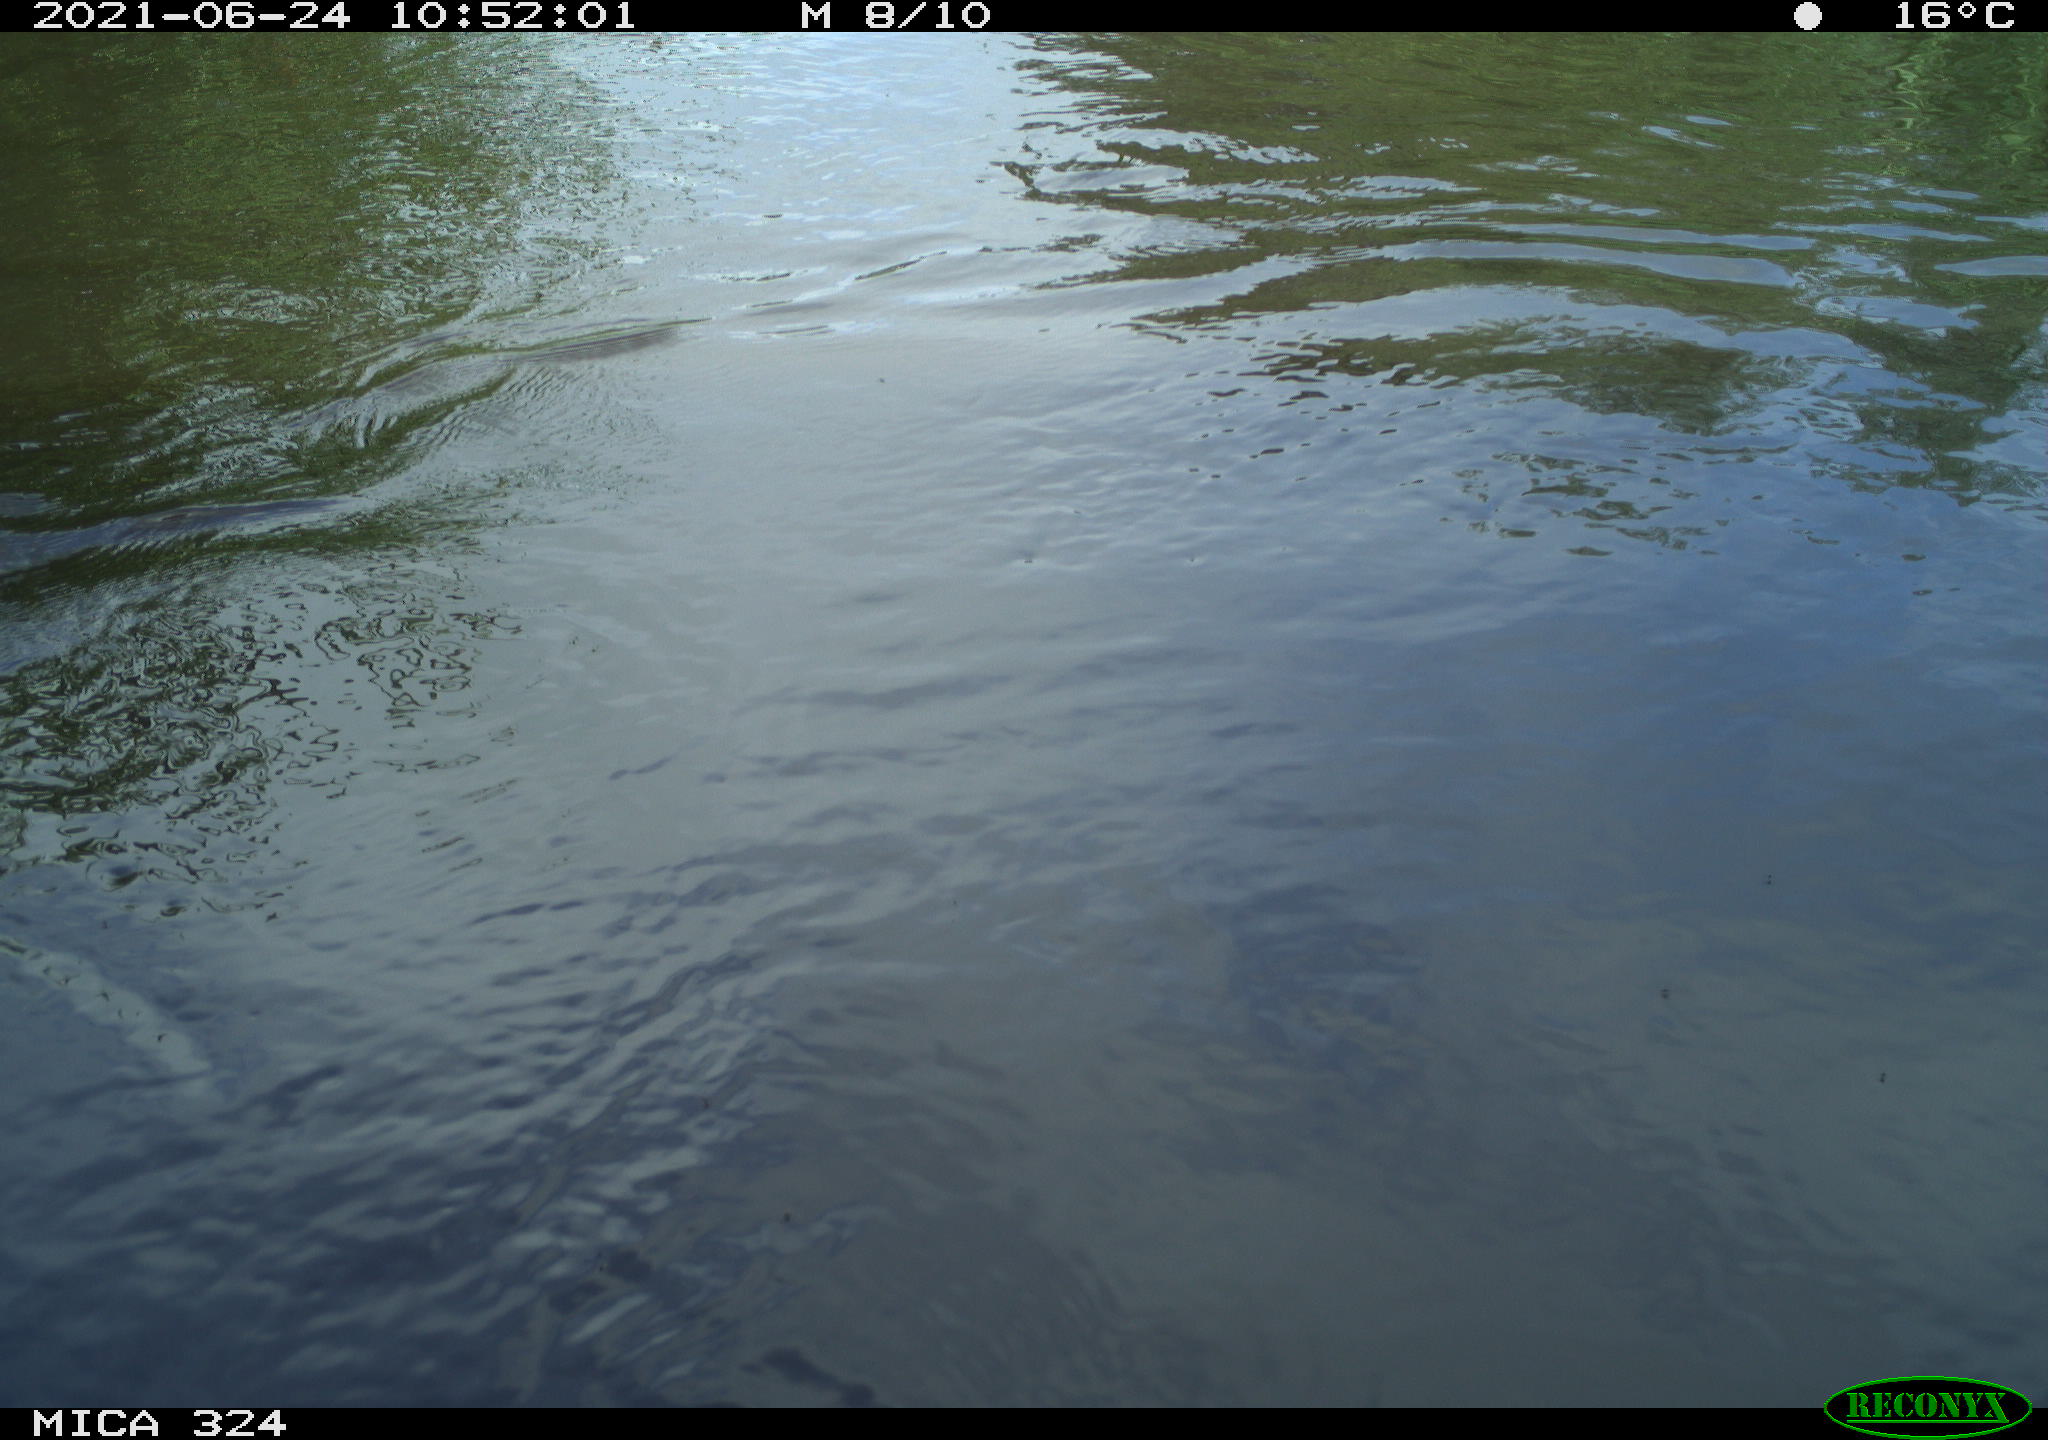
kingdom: Animalia
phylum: Chordata
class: Aves
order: Gruiformes
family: Rallidae
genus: Gallinula
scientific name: Gallinula chloropus
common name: Common moorhen
